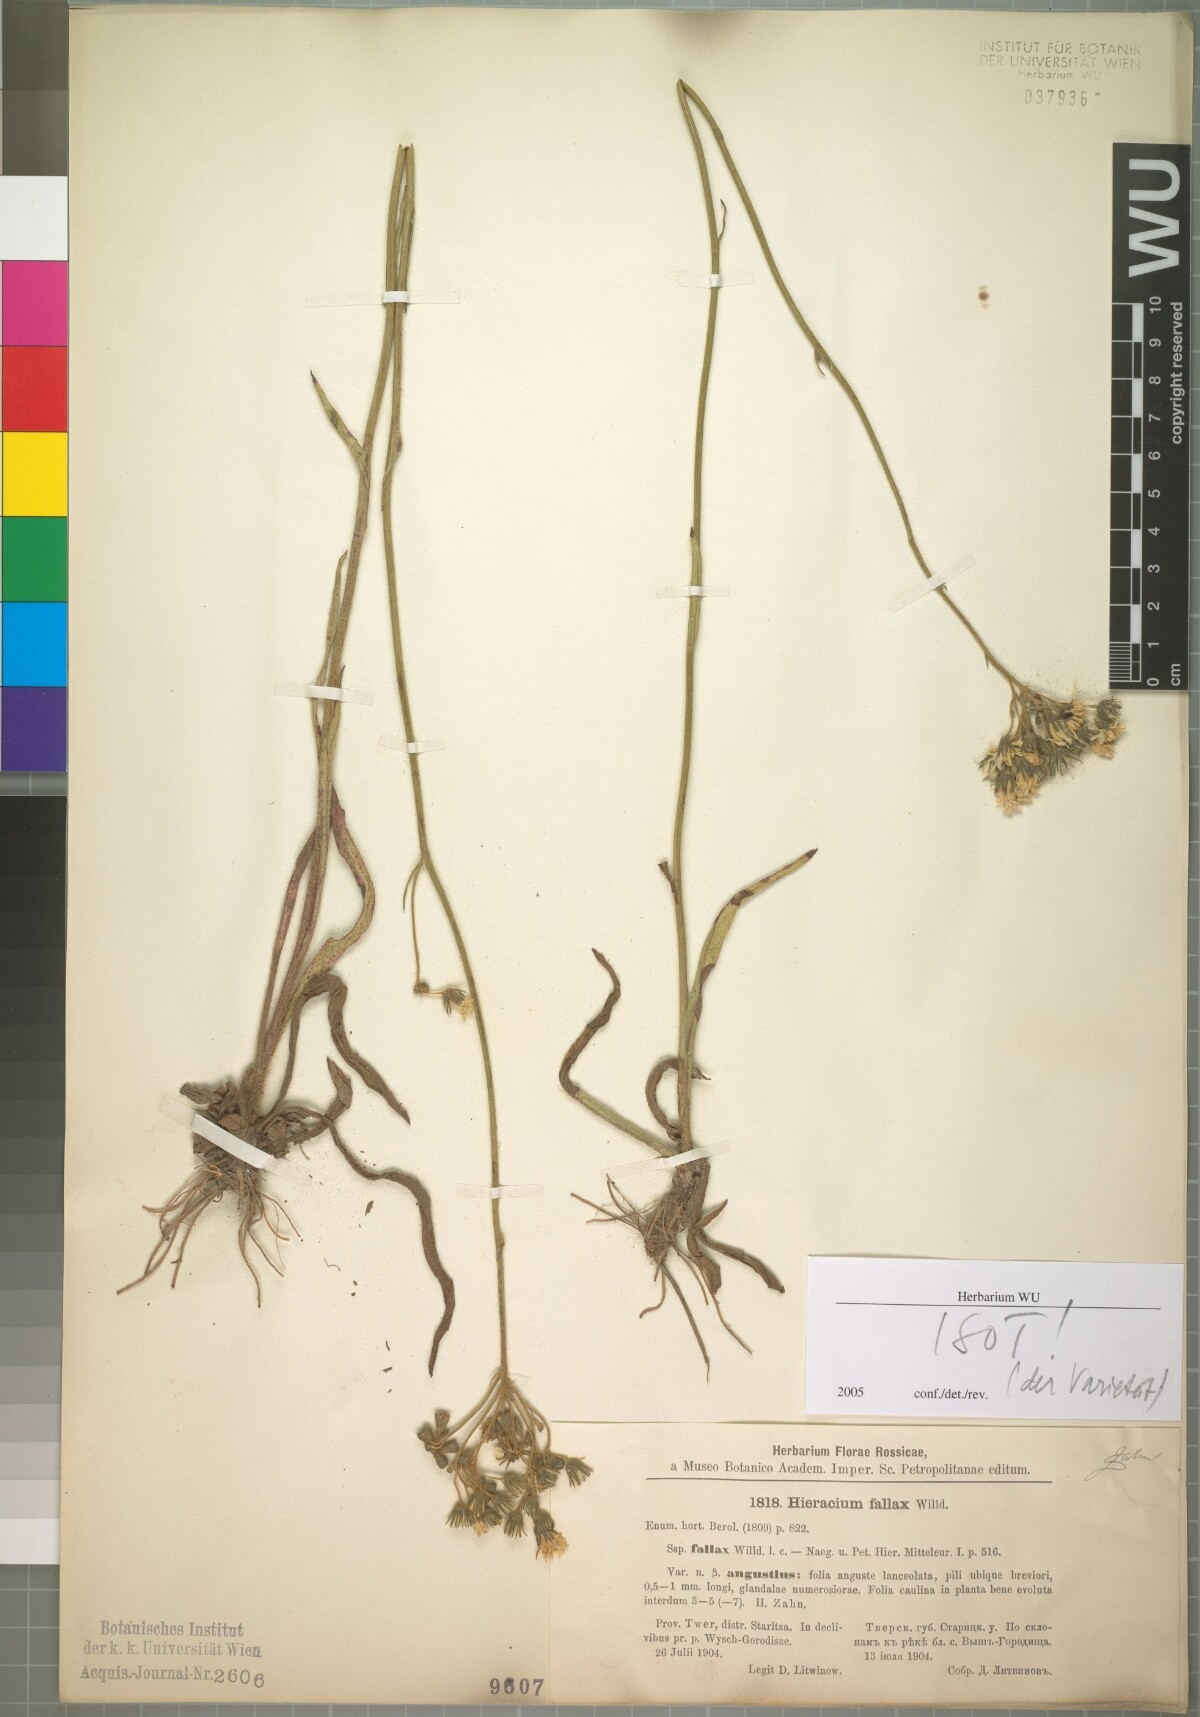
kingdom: Plantae
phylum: Tracheophyta
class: Magnoliopsida
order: Asterales
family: Asteraceae
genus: Hieracium
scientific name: Hieracium fallax
